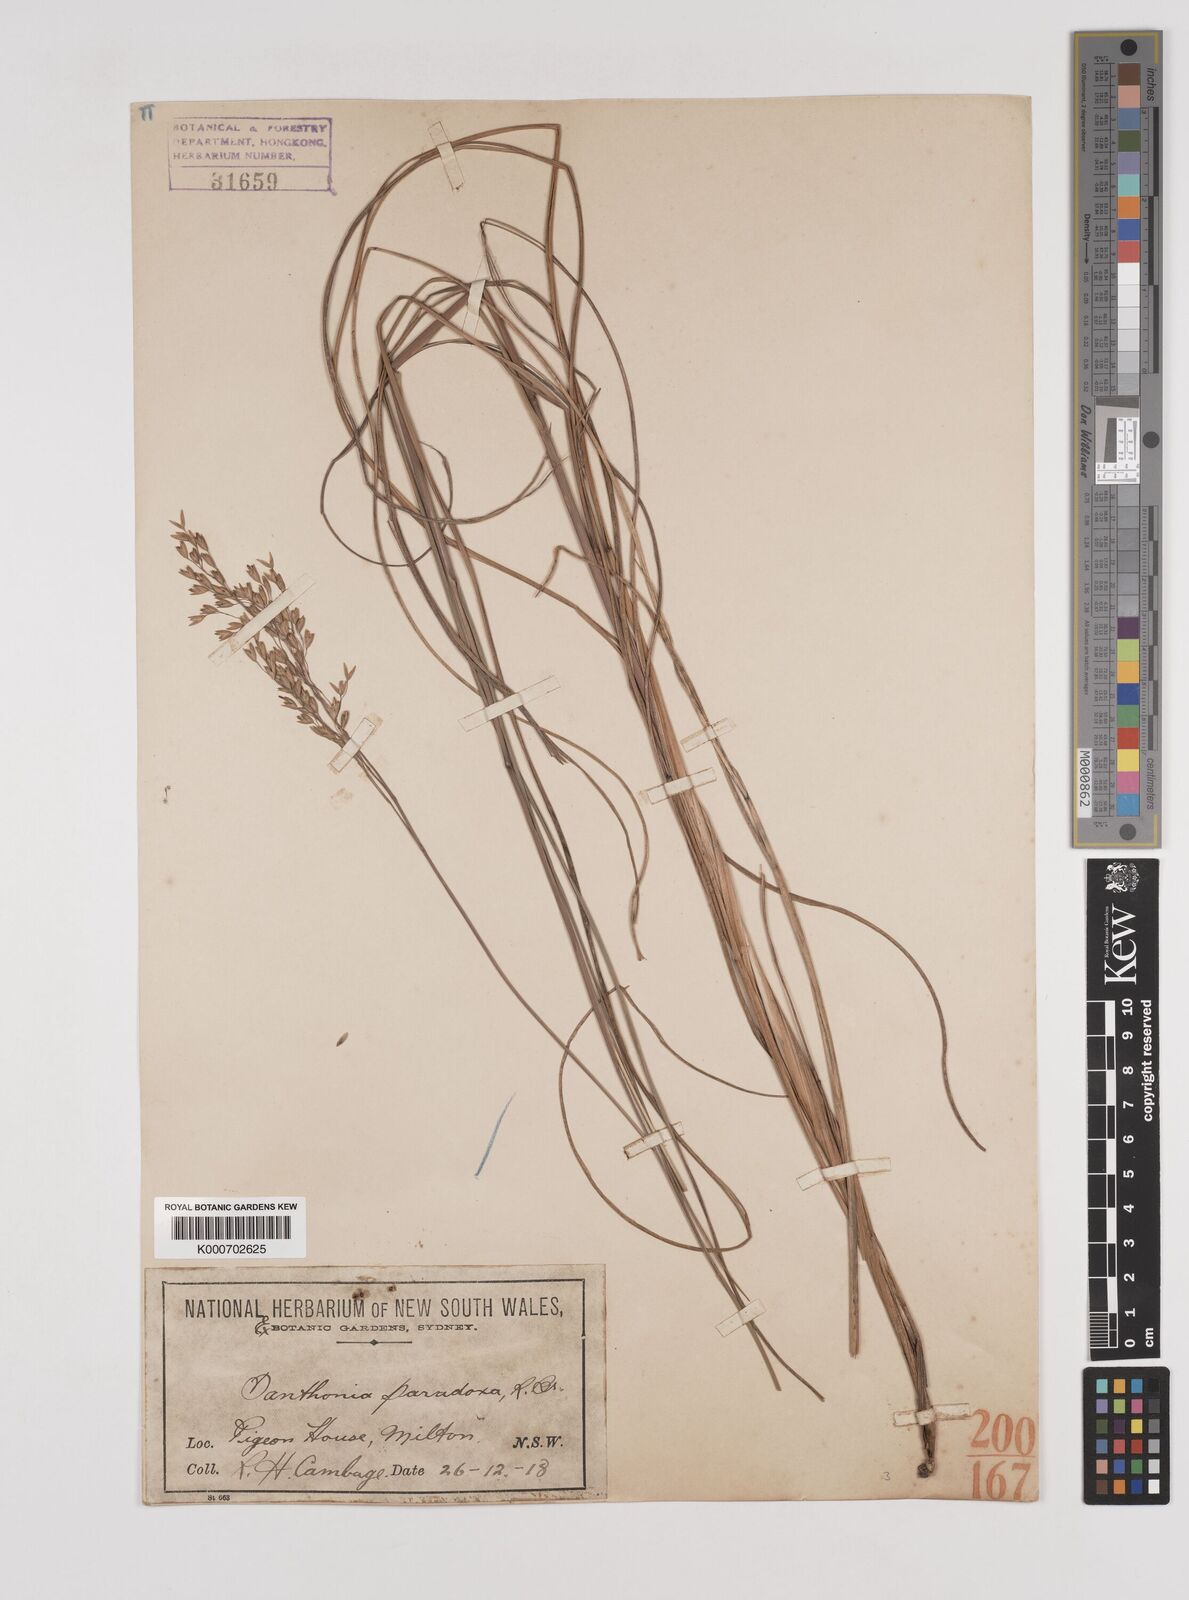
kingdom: Plantae
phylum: Tracheophyta
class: Liliopsida
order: Poales
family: Poaceae
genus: Plinthanthesis
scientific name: Plinthanthesis paradoxa
